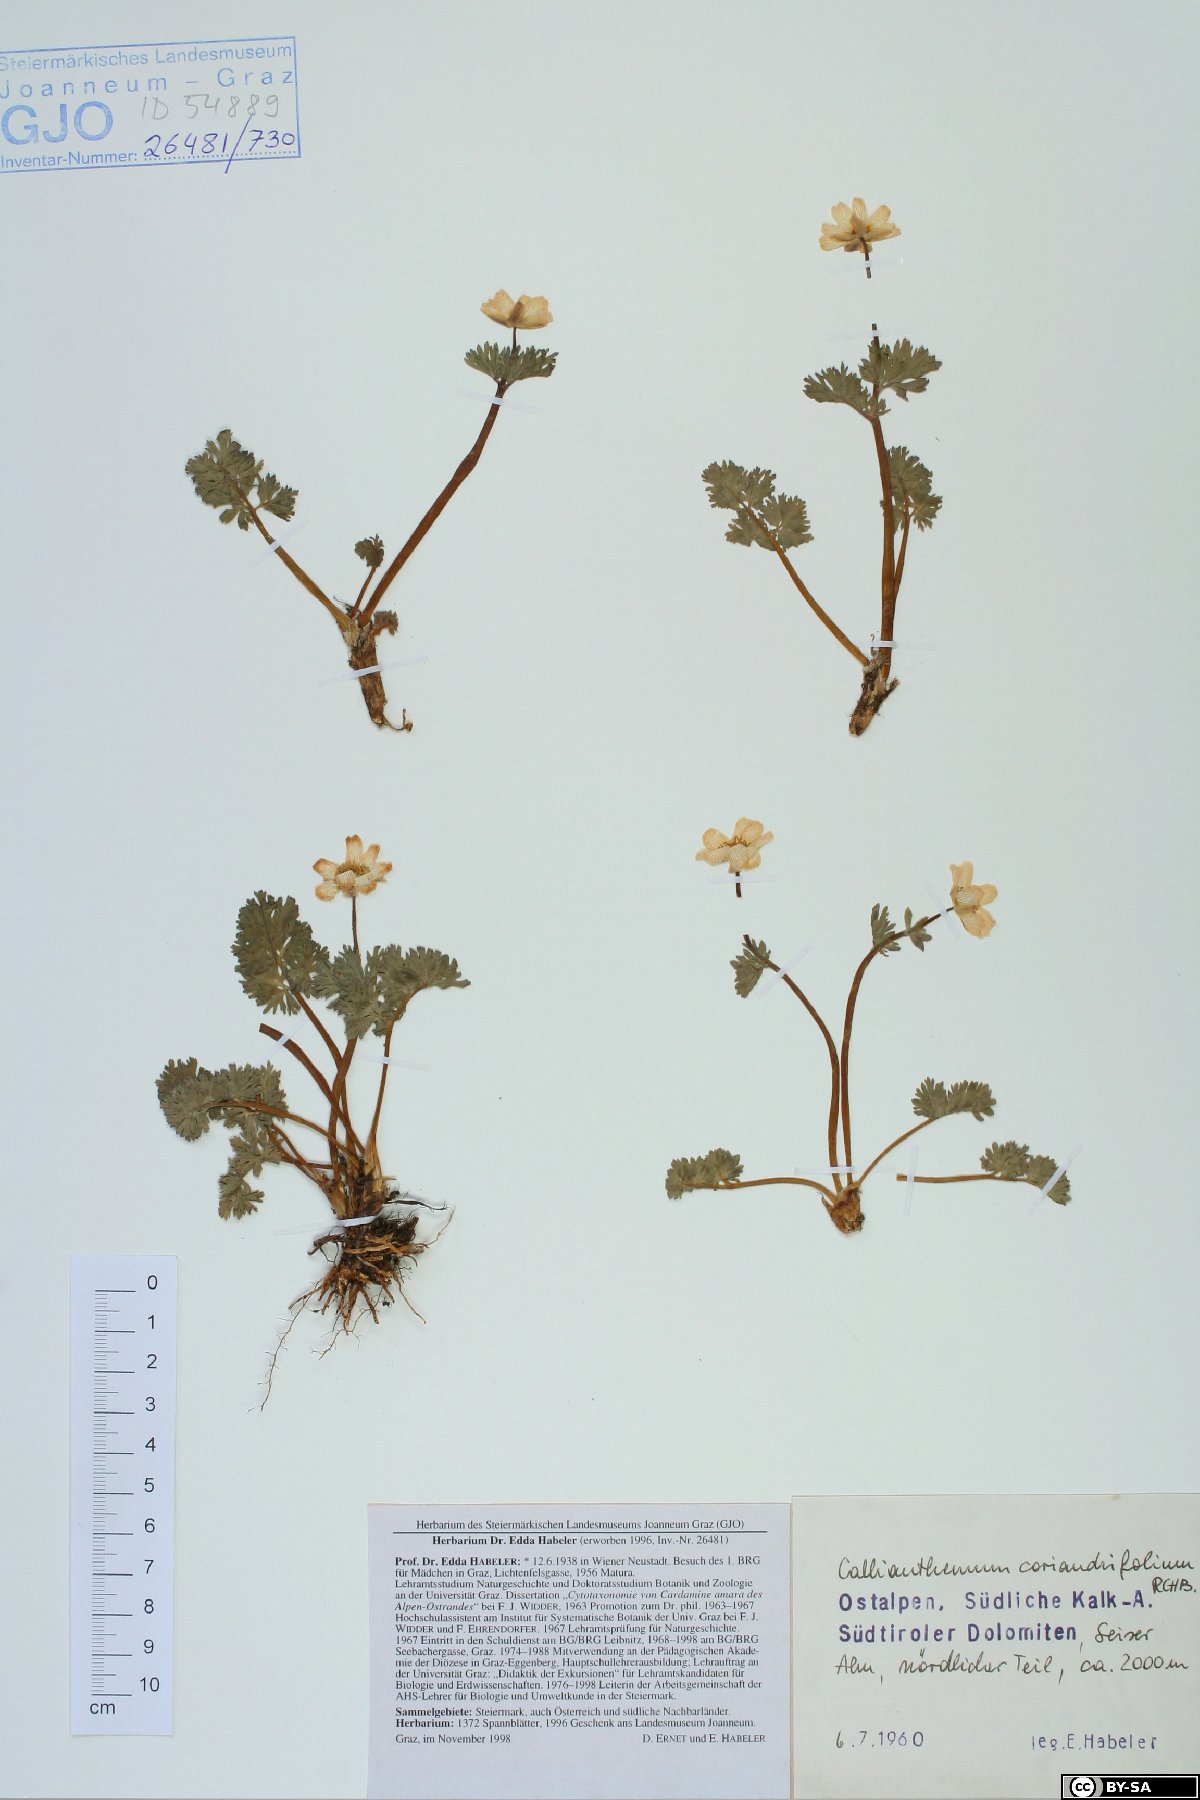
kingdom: Plantae
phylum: Tracheophyta
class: Magnoliopsida
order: Ranunculales
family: Ranunculaceae
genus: Callianthemum
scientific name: Callianthemum coriandrifolium
